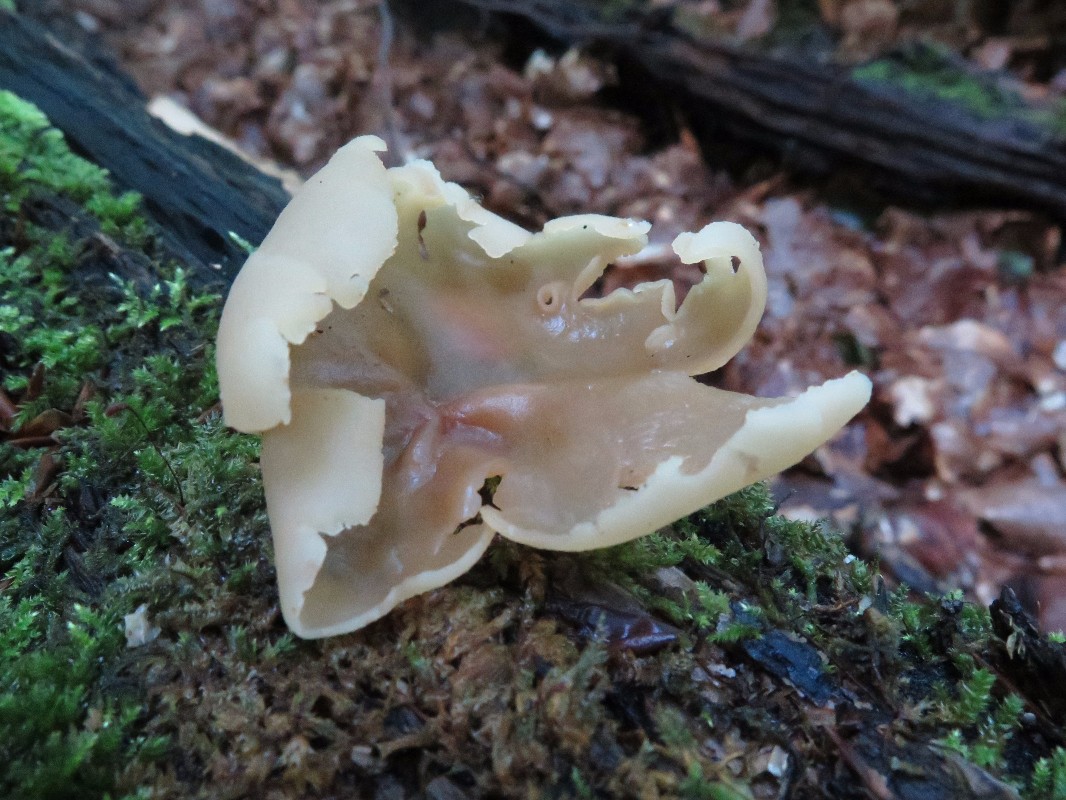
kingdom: Fungi
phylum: Ascomycota
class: Pezizomycetes
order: Pezizales
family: Pezizaceae
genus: Peziza
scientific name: Peziza varia
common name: Ved-bægersvamp
